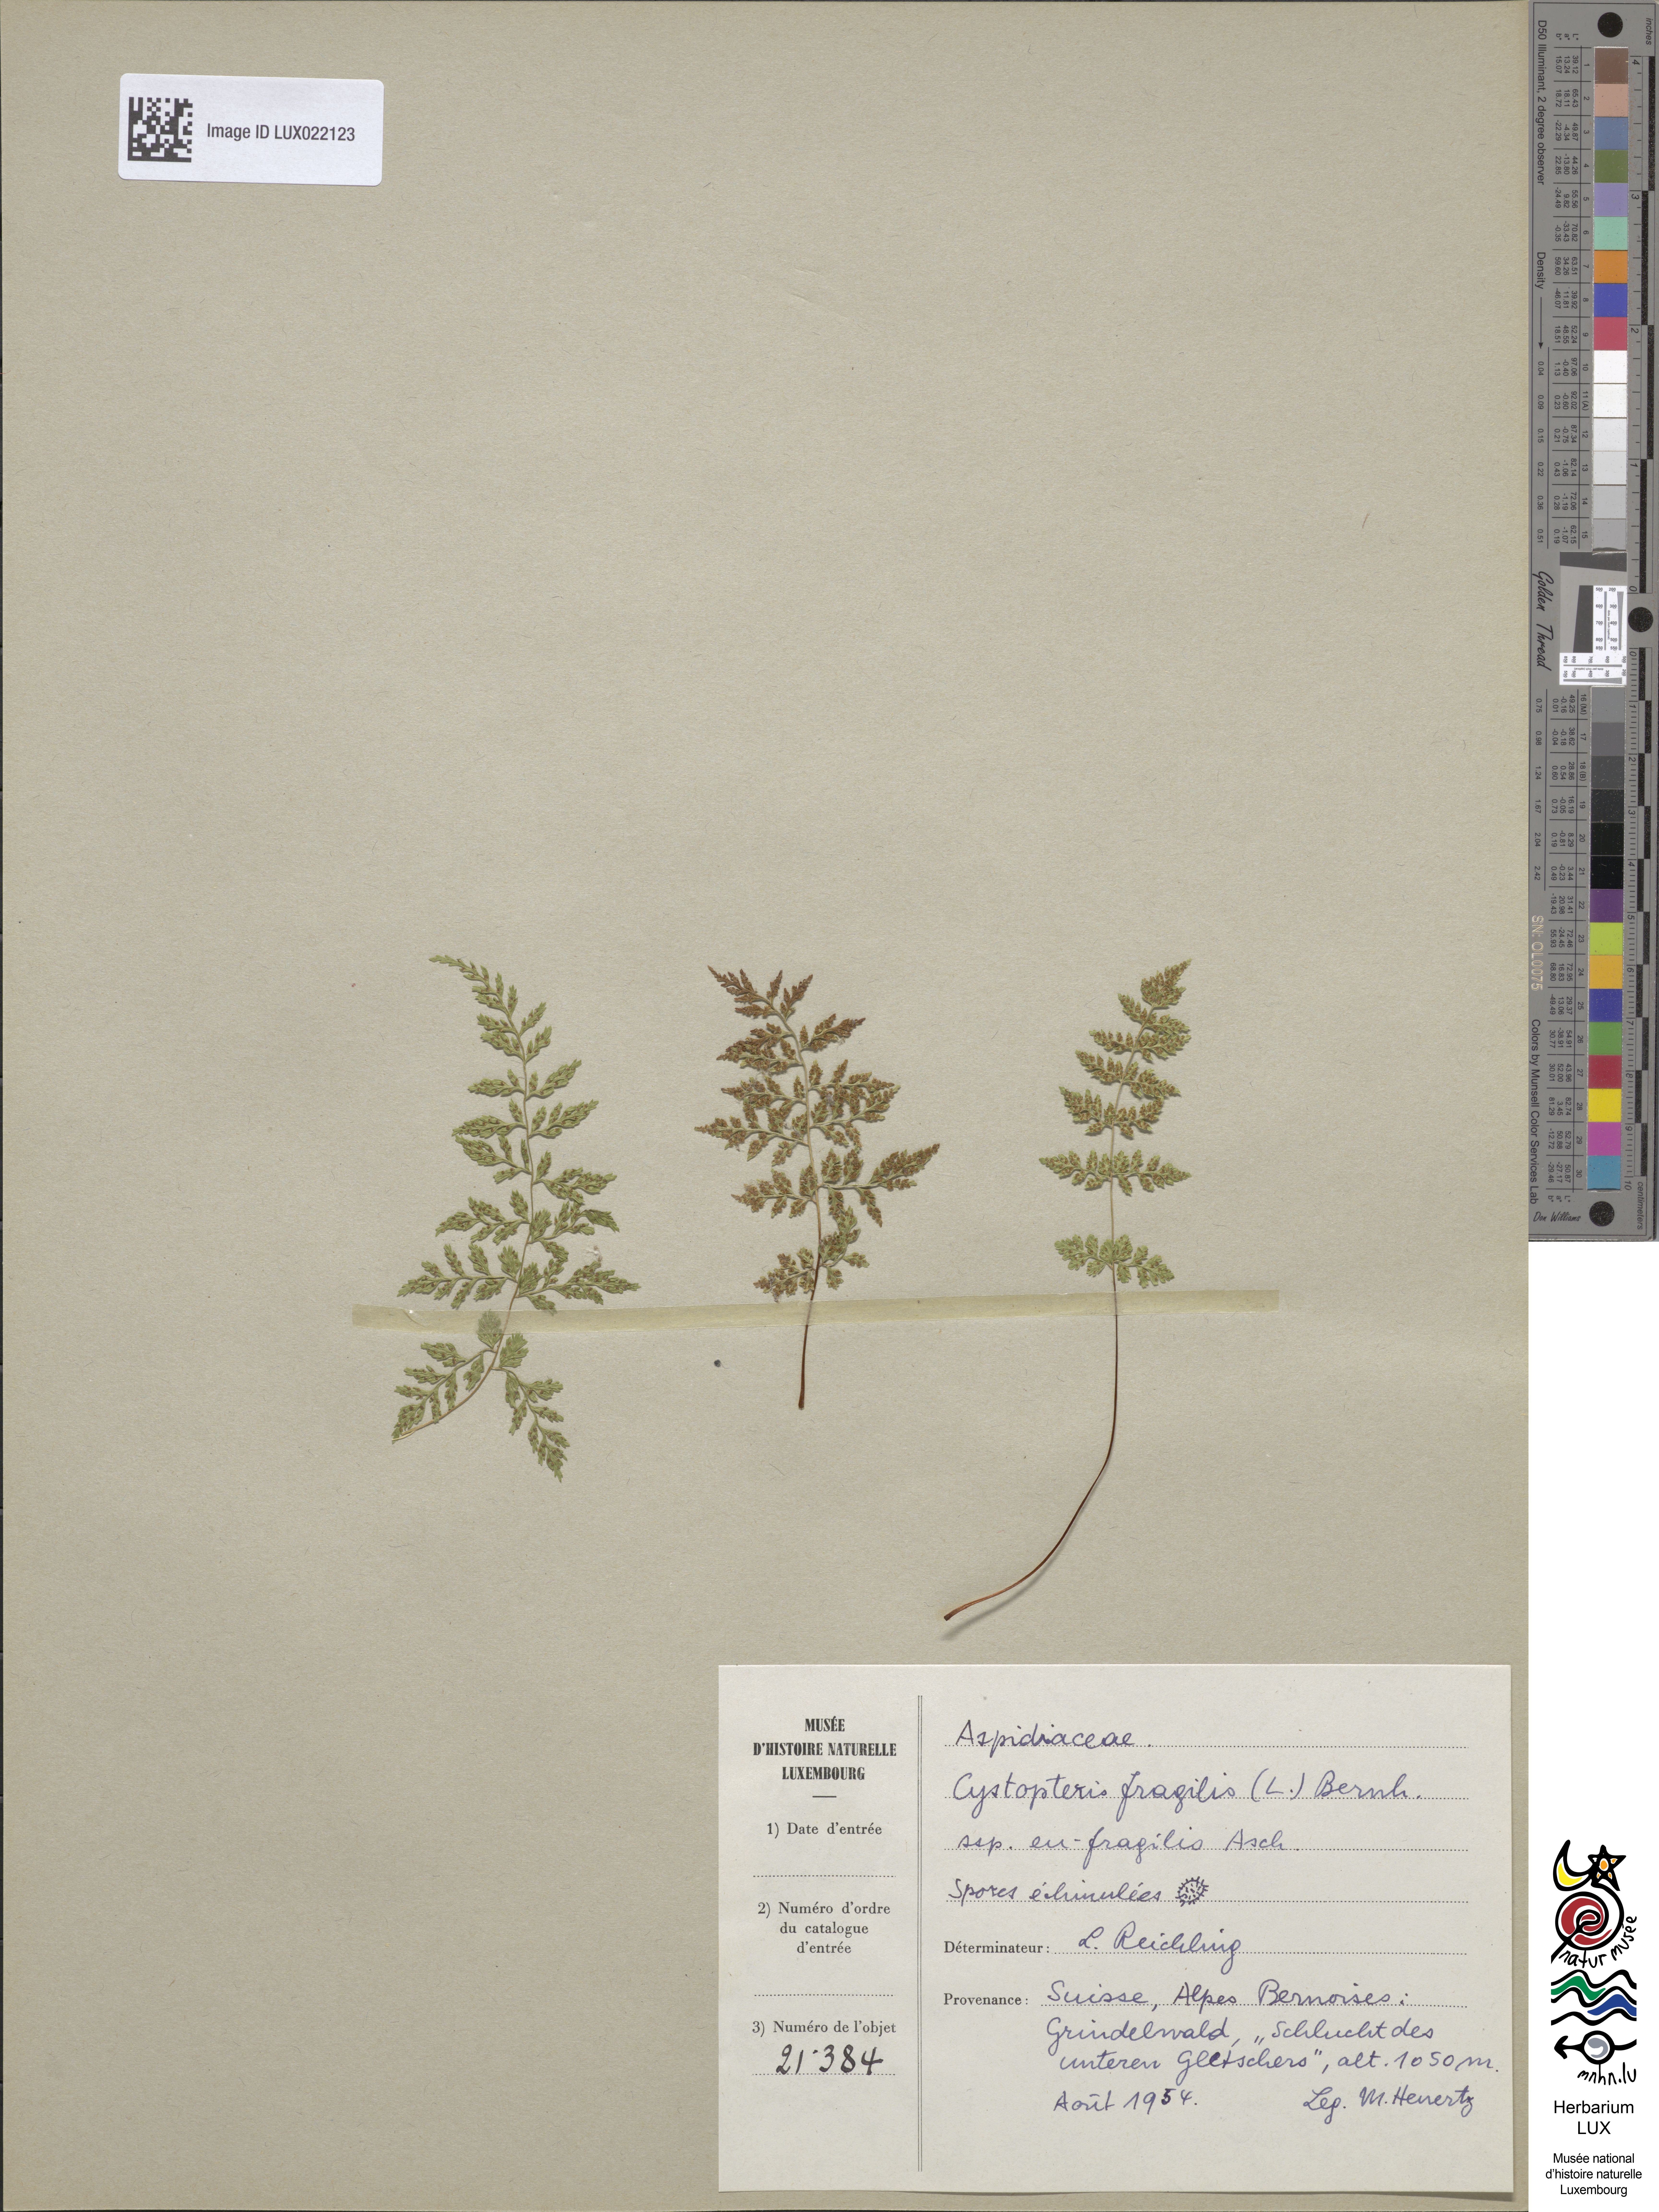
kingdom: Plantae
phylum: Tracheophyta
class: Polypodiopsida
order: Polypodiales
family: Cystopteridaceae
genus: Cystopteris
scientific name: Cystopteris fragilis
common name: Brittle bladder fern
